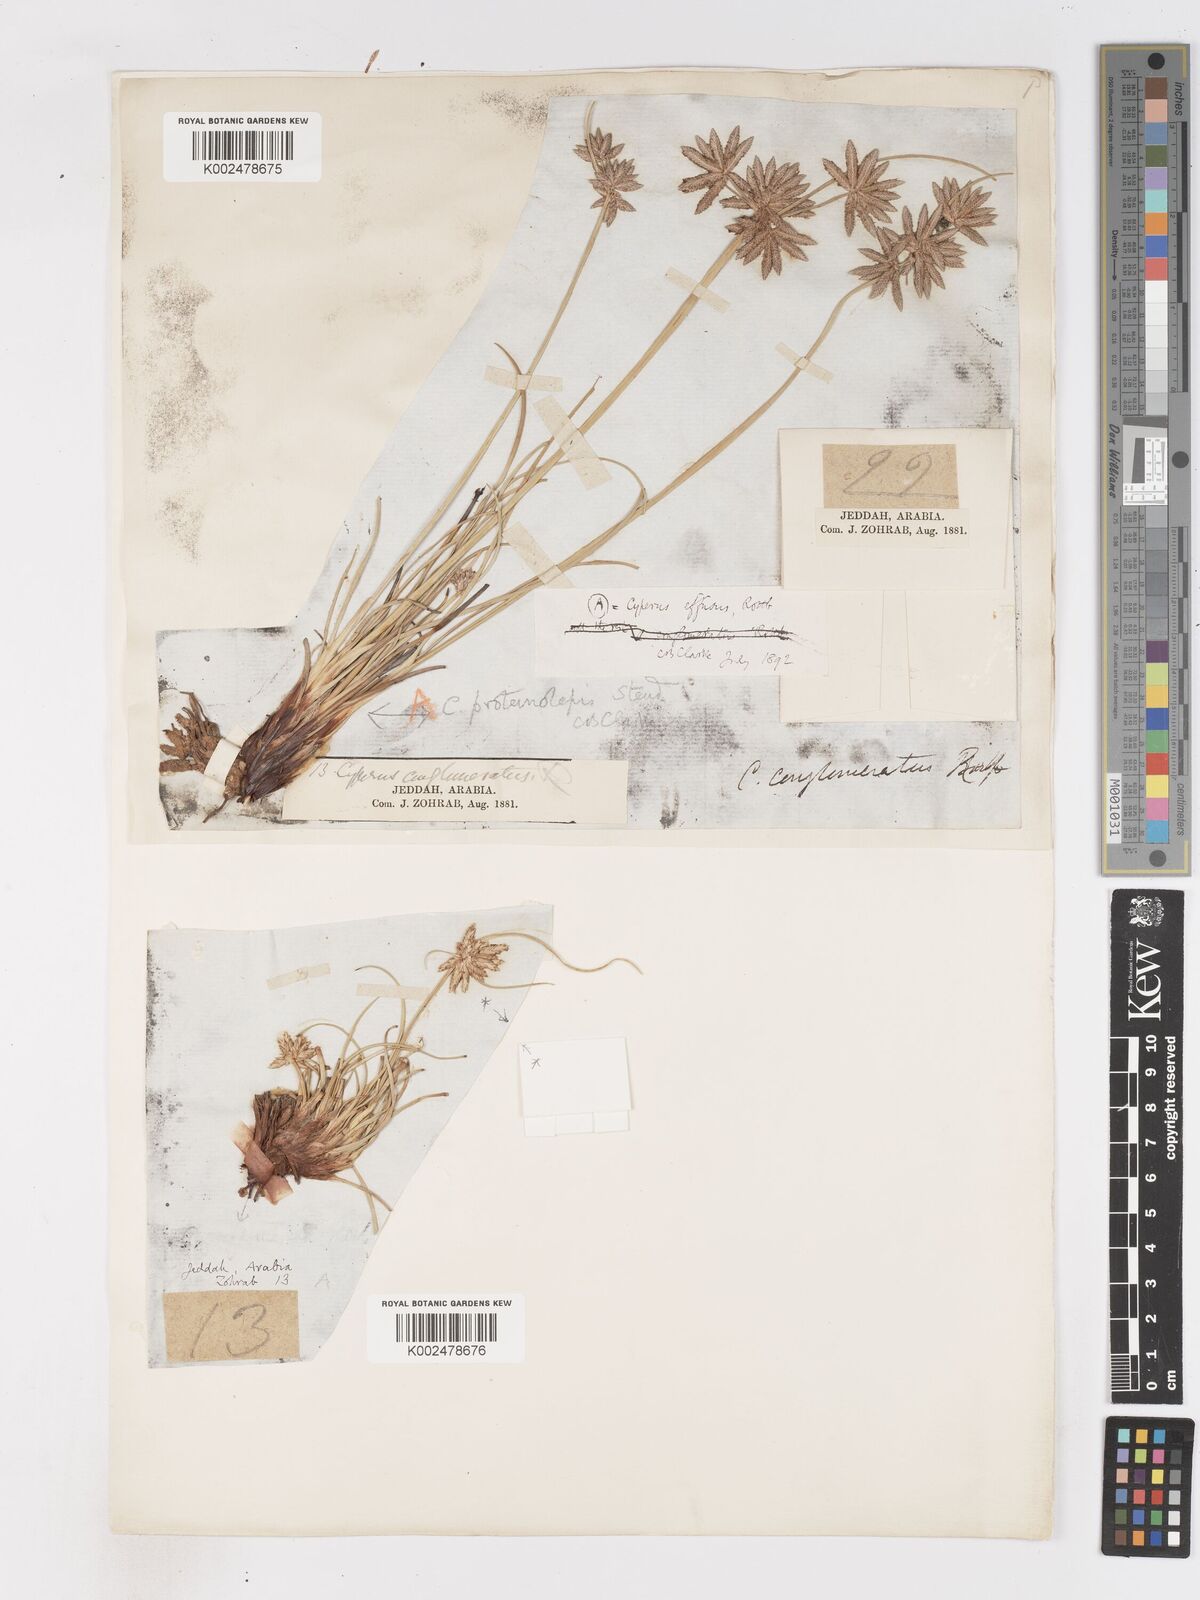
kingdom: Plantae
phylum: Tracheophyta
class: Liliopsida
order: Poales
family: Cyperaceae
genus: Cyperus
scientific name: Cyperus conglomeratus
